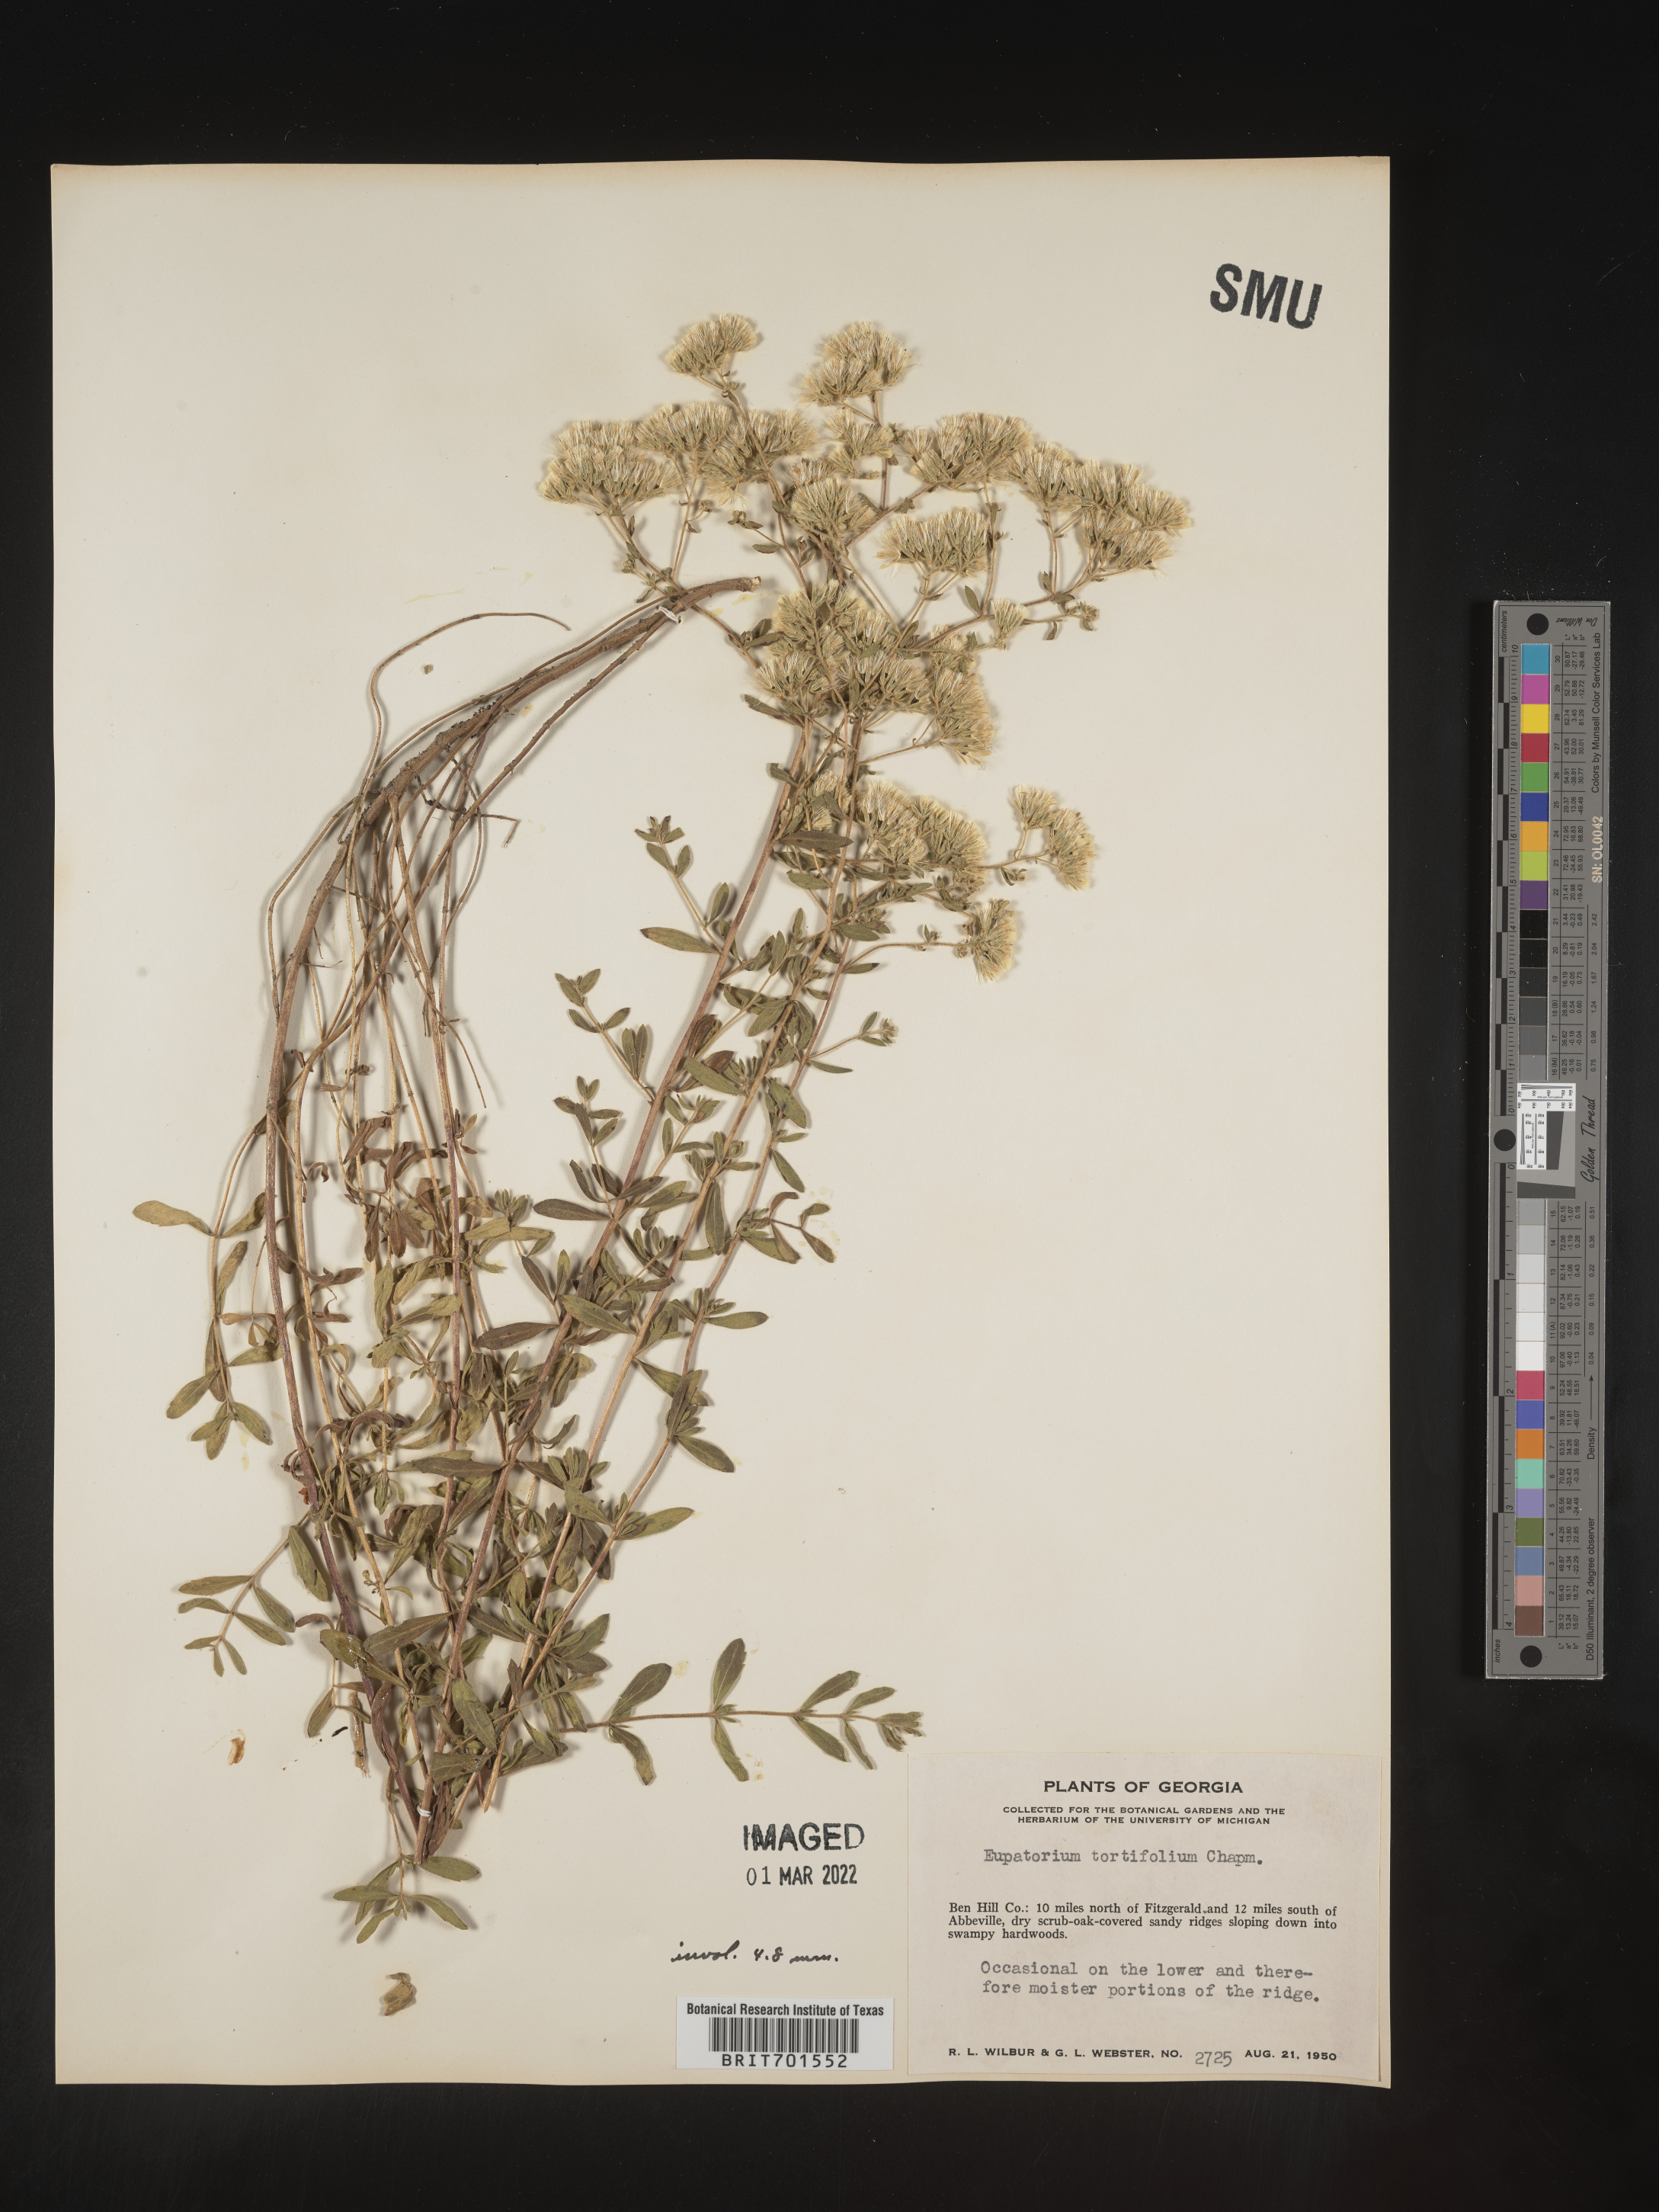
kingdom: Plantae
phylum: Tracheophyta
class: Magnoliopsida
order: Asterales
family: Asteraceae
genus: Eupatorium
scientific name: Eupatorium linearifolium
